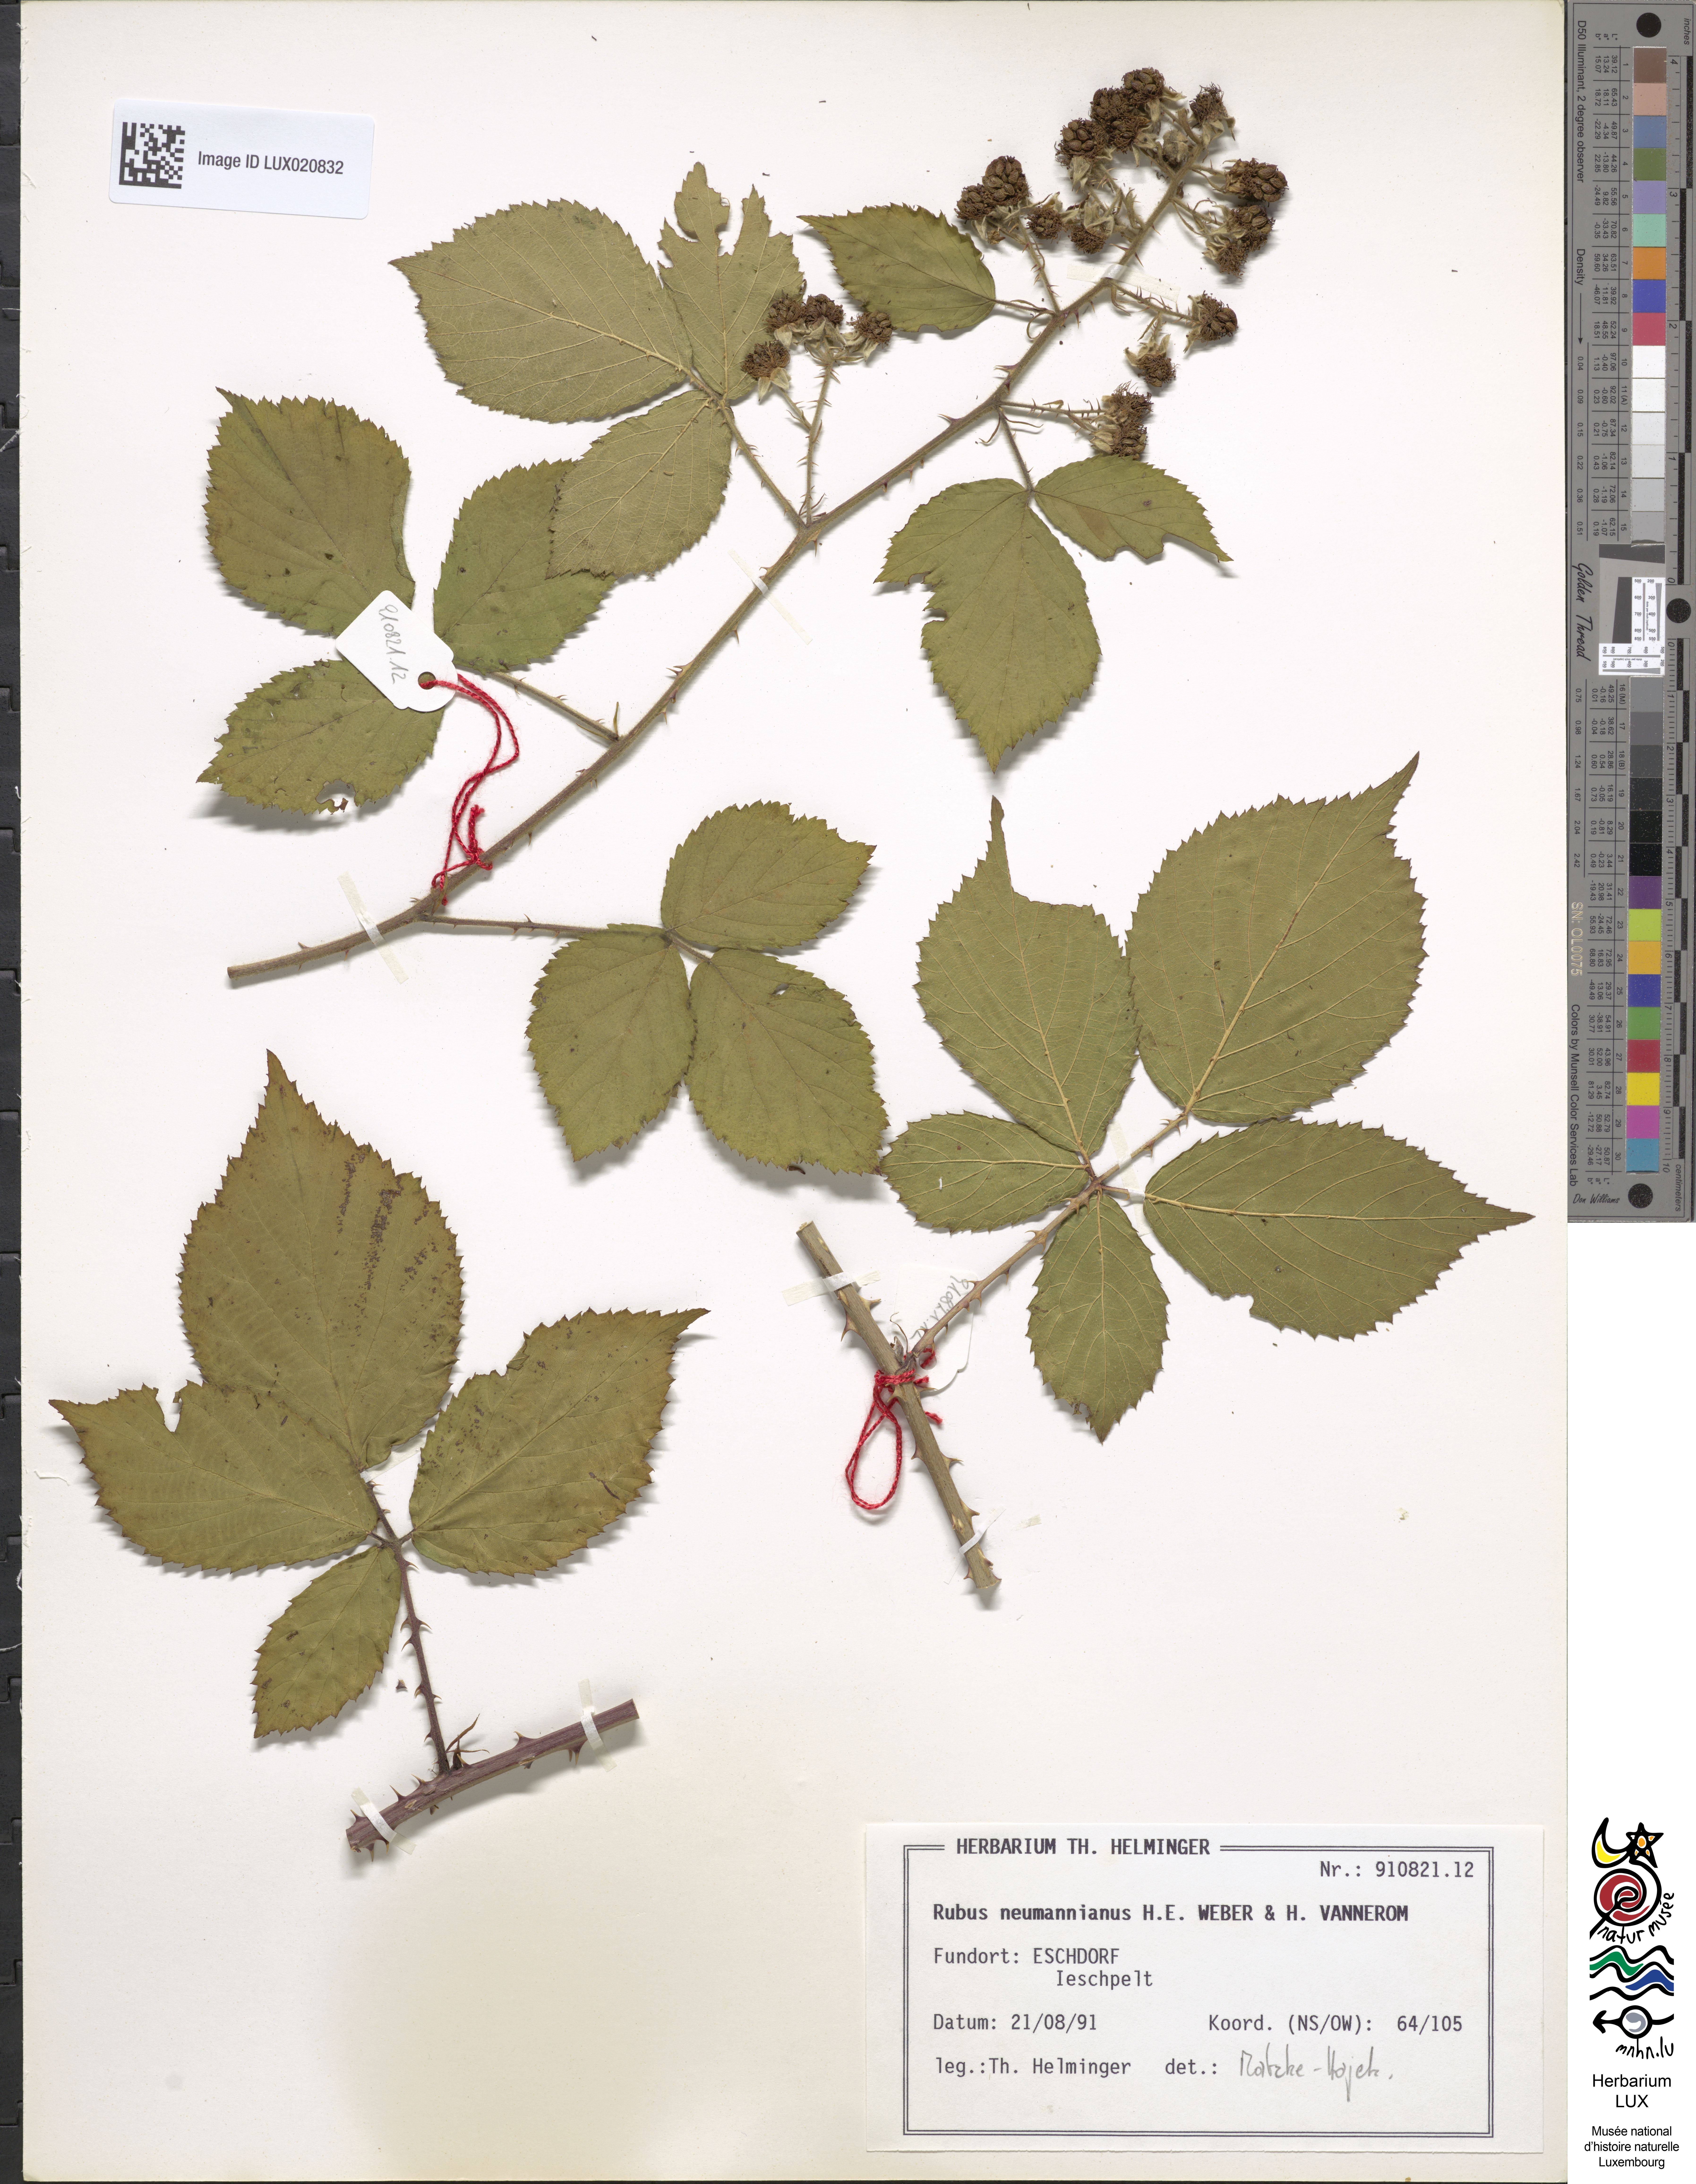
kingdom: Plantae
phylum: Tracheophyta
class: Magnoliopsida
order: Rosales
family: Rosaceae
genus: Rubus
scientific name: Rubus favonii
